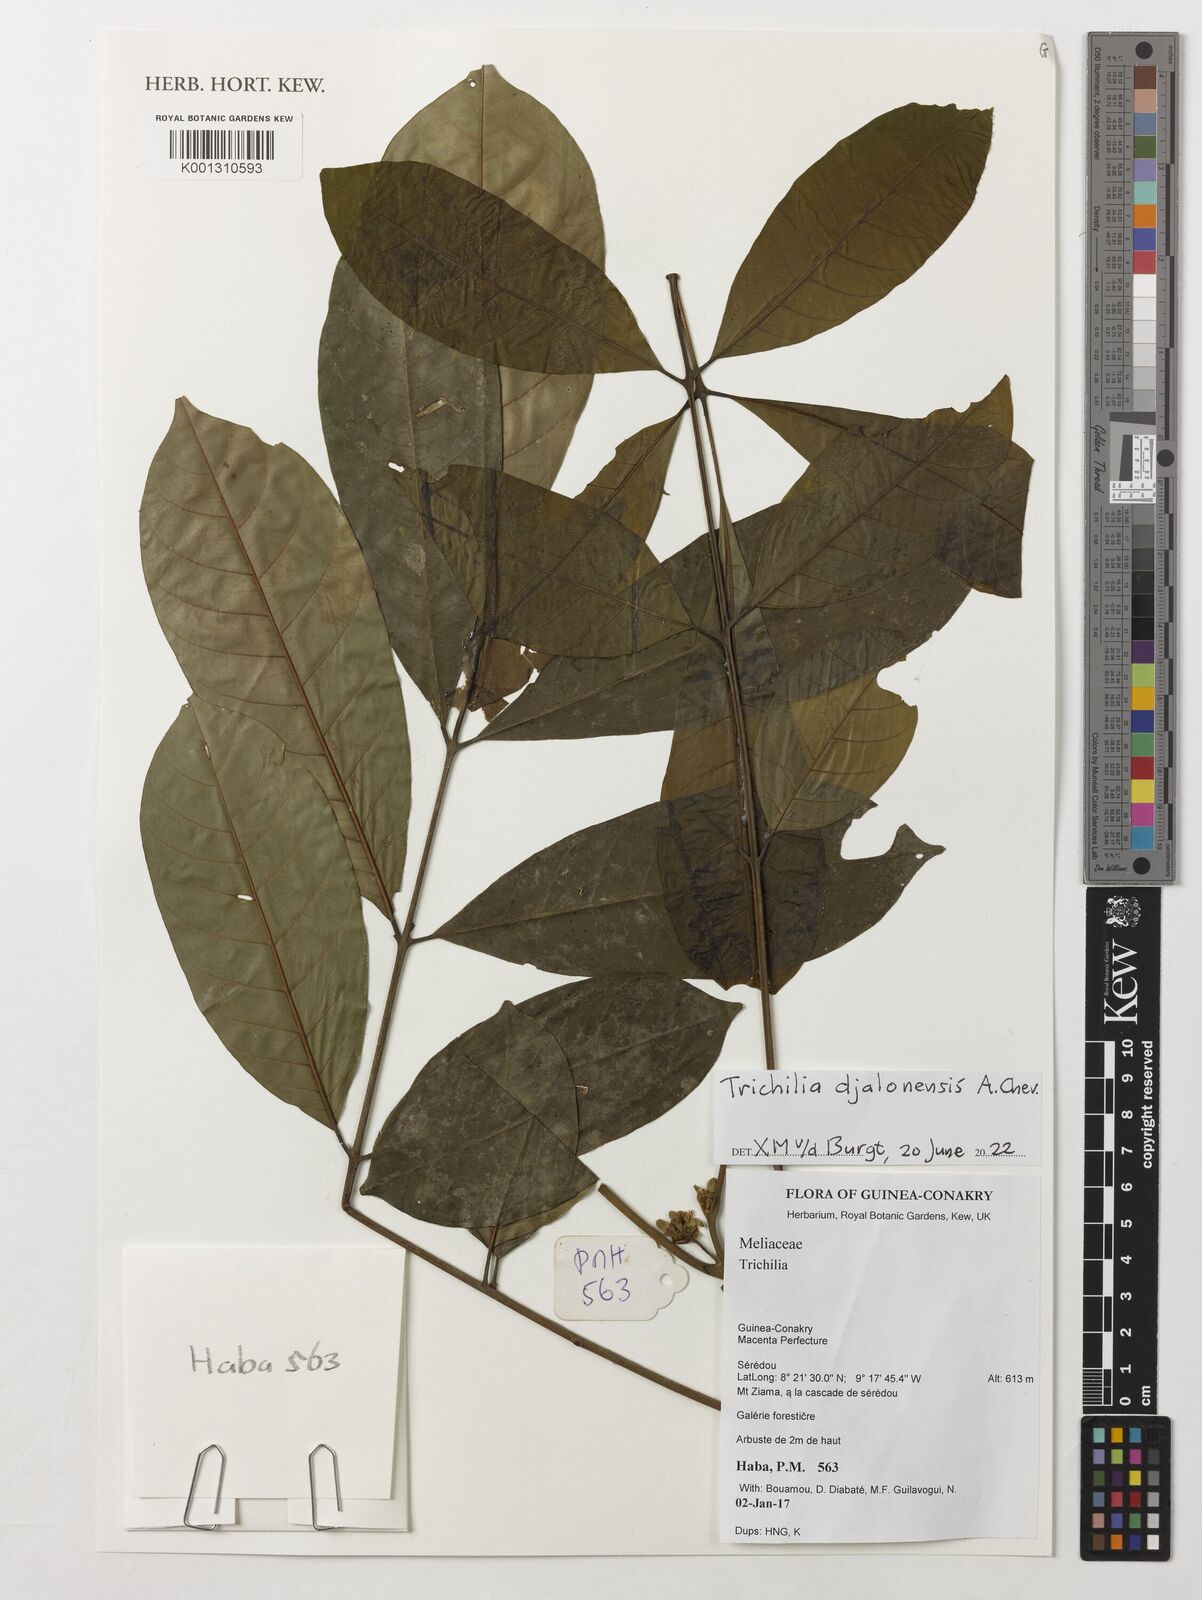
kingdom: Plantae
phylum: Tracheophyta
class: Magnoliopsida
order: Sapindales
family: Meliaceae
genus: Trichilia
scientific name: Trichilia djalonis
